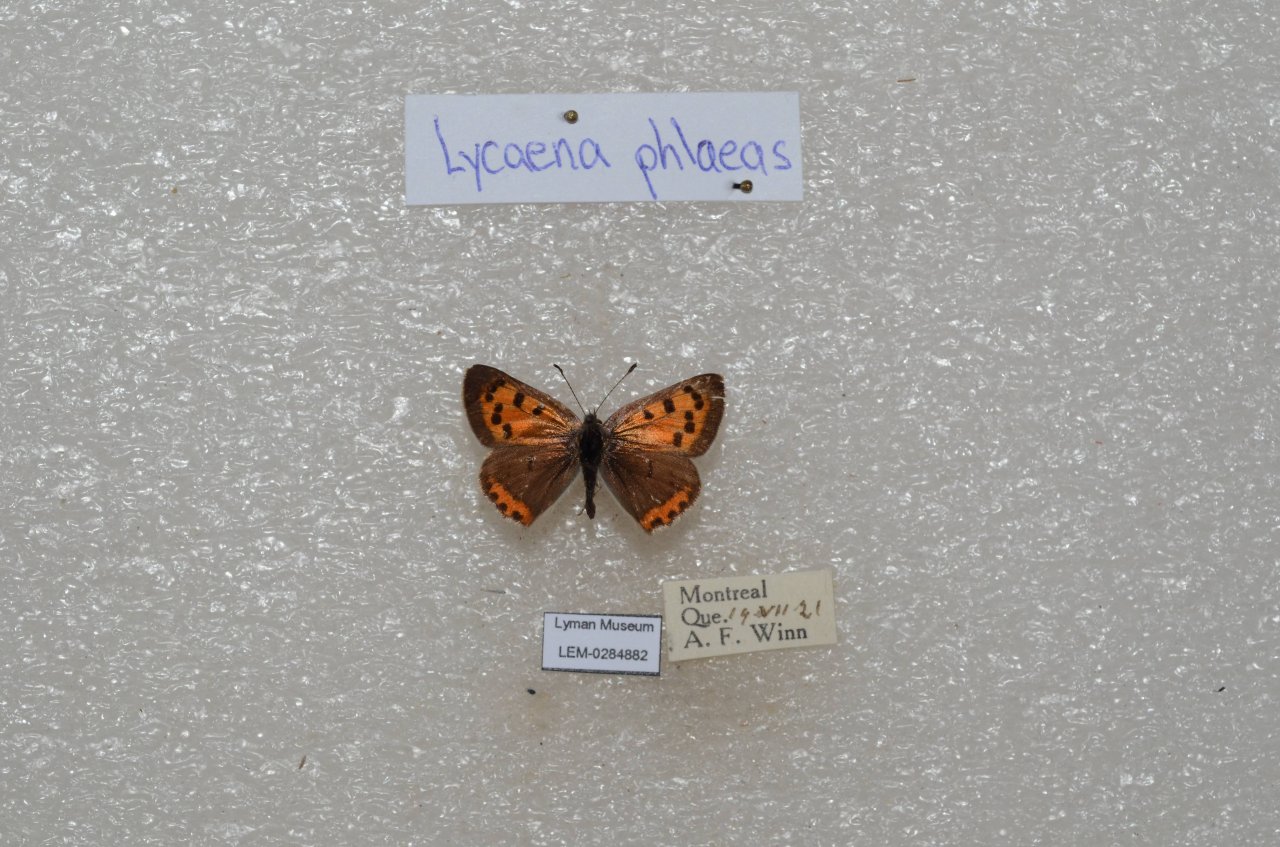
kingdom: Animalia
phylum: Arthropoda
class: Insecta
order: Lepidoptera
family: Lycaenidae
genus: Lycaena
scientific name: Lycaena phlaeas
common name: American Copper
